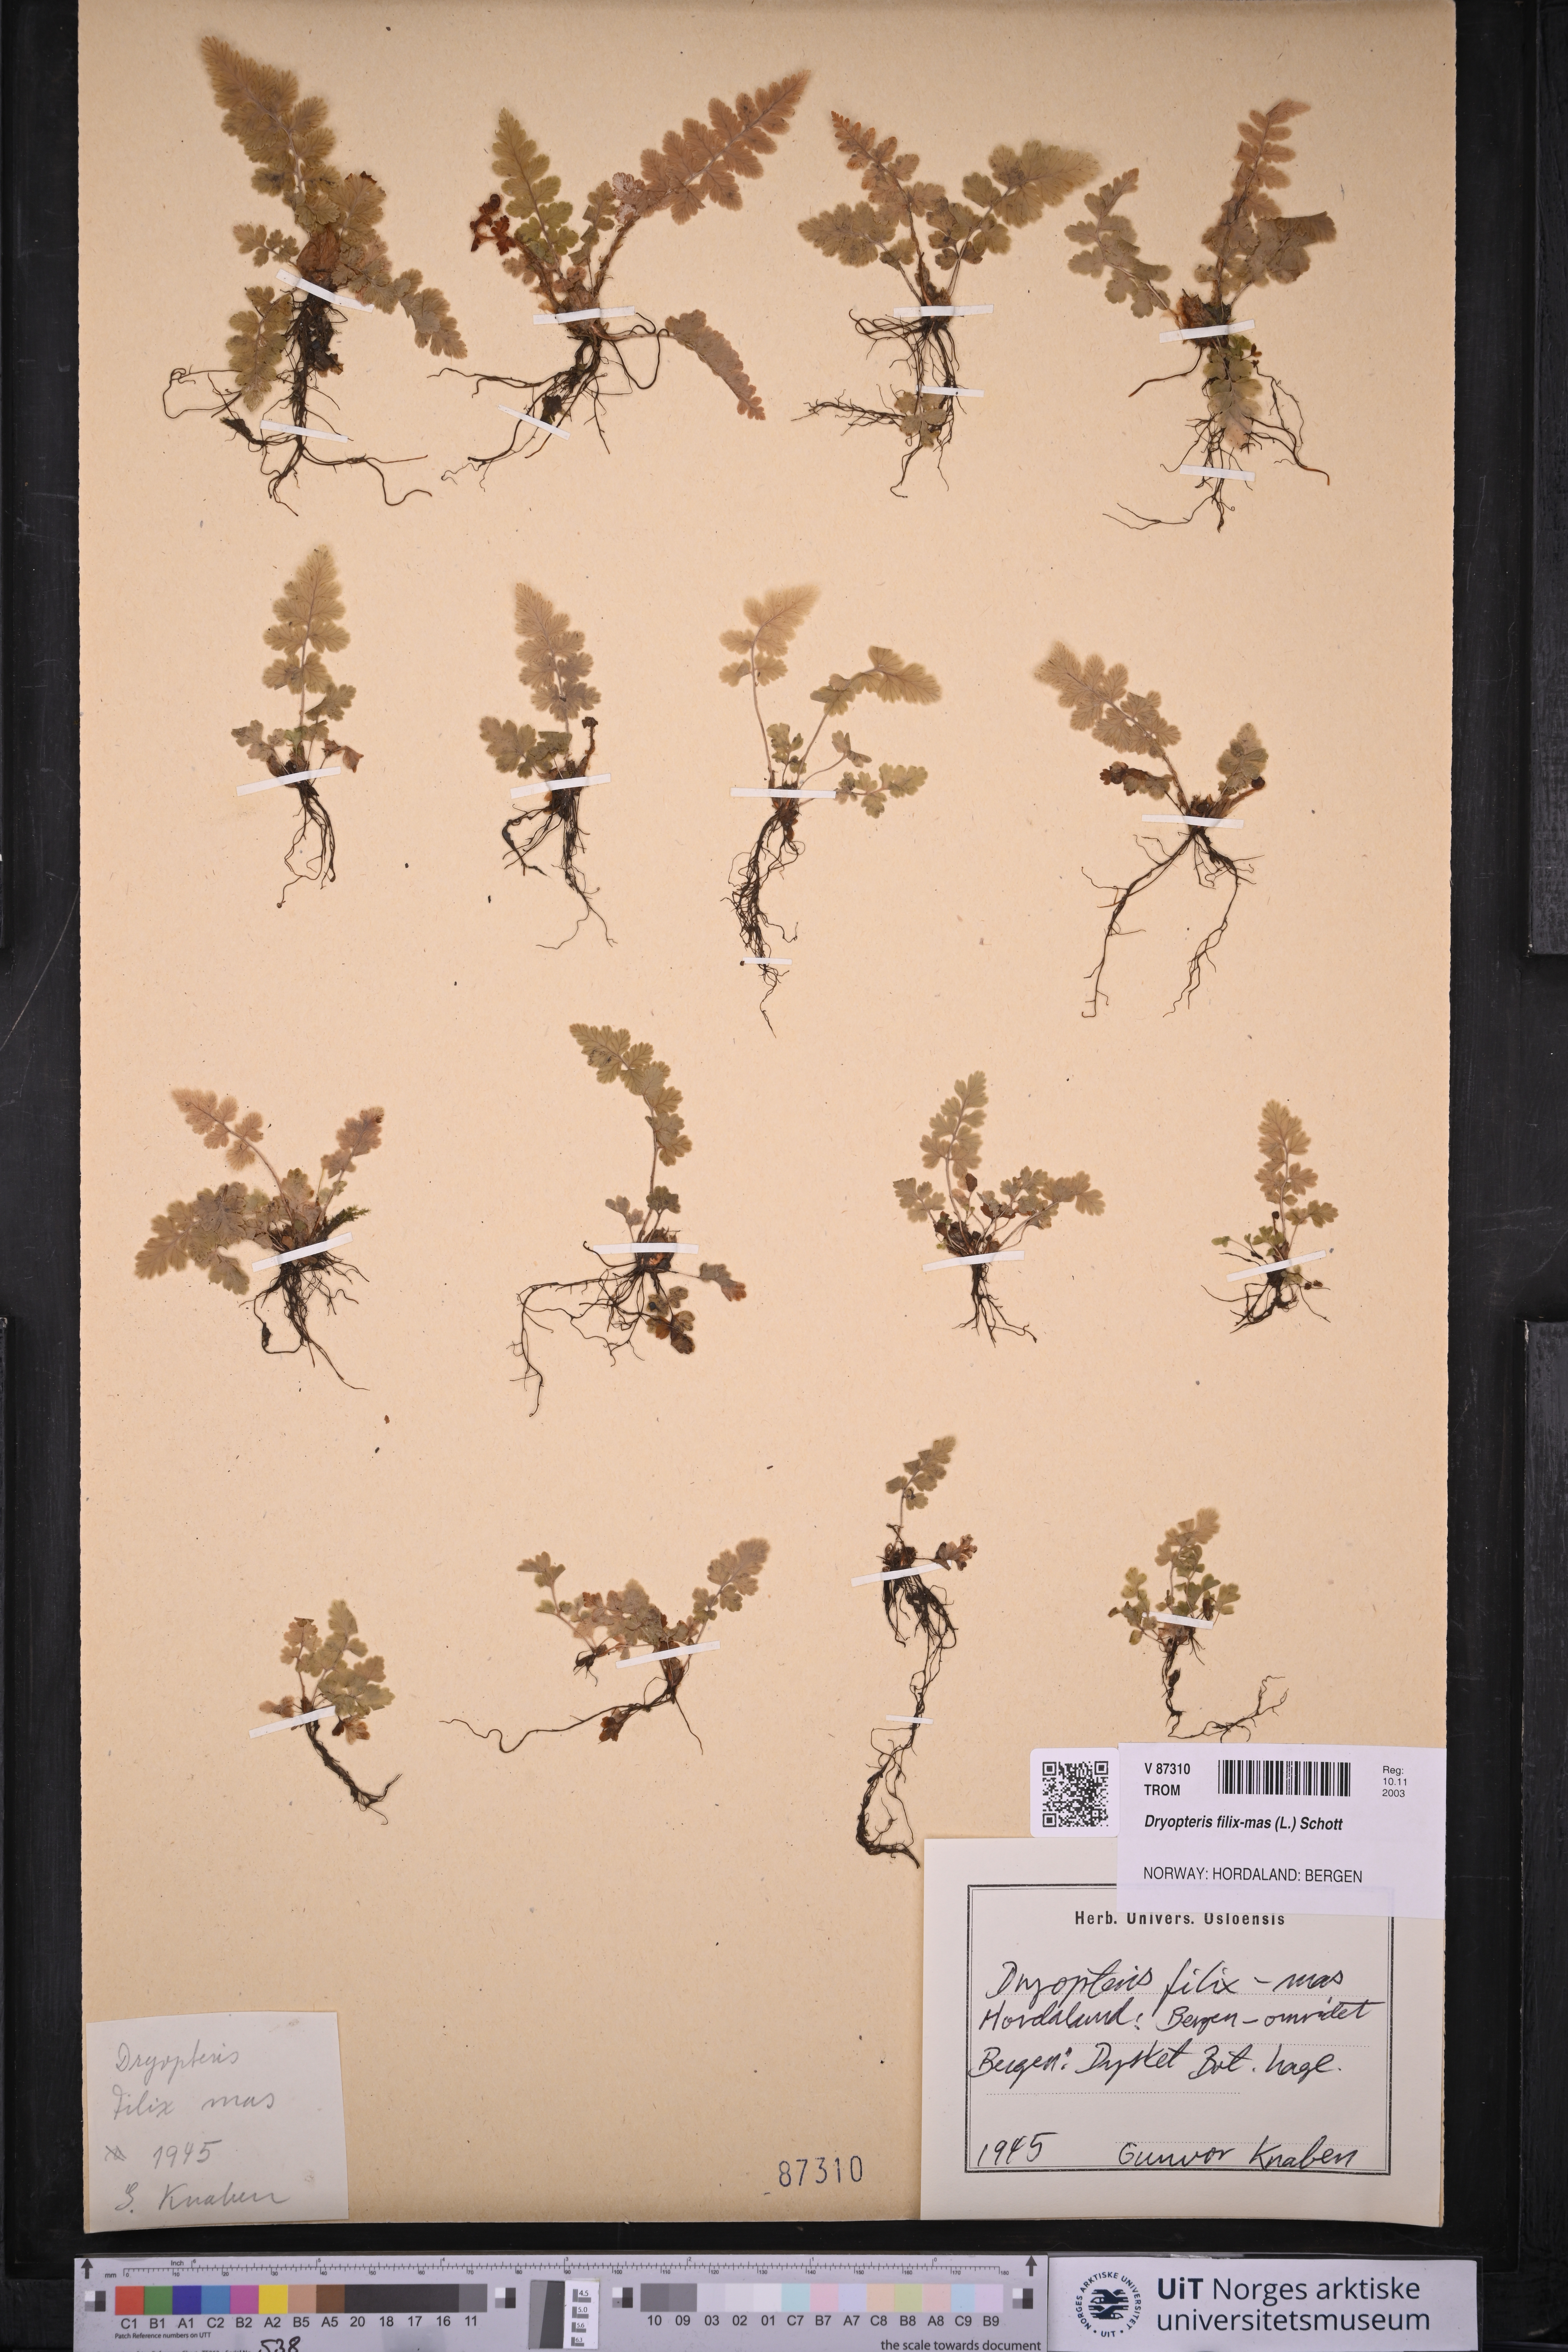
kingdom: Plantae
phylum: Tracheophyta
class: Polypodiopsida
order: Polypodiales
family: Dryopteridaceae
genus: Dryopteris
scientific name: Dryopteris filix-mas
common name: Male fern
